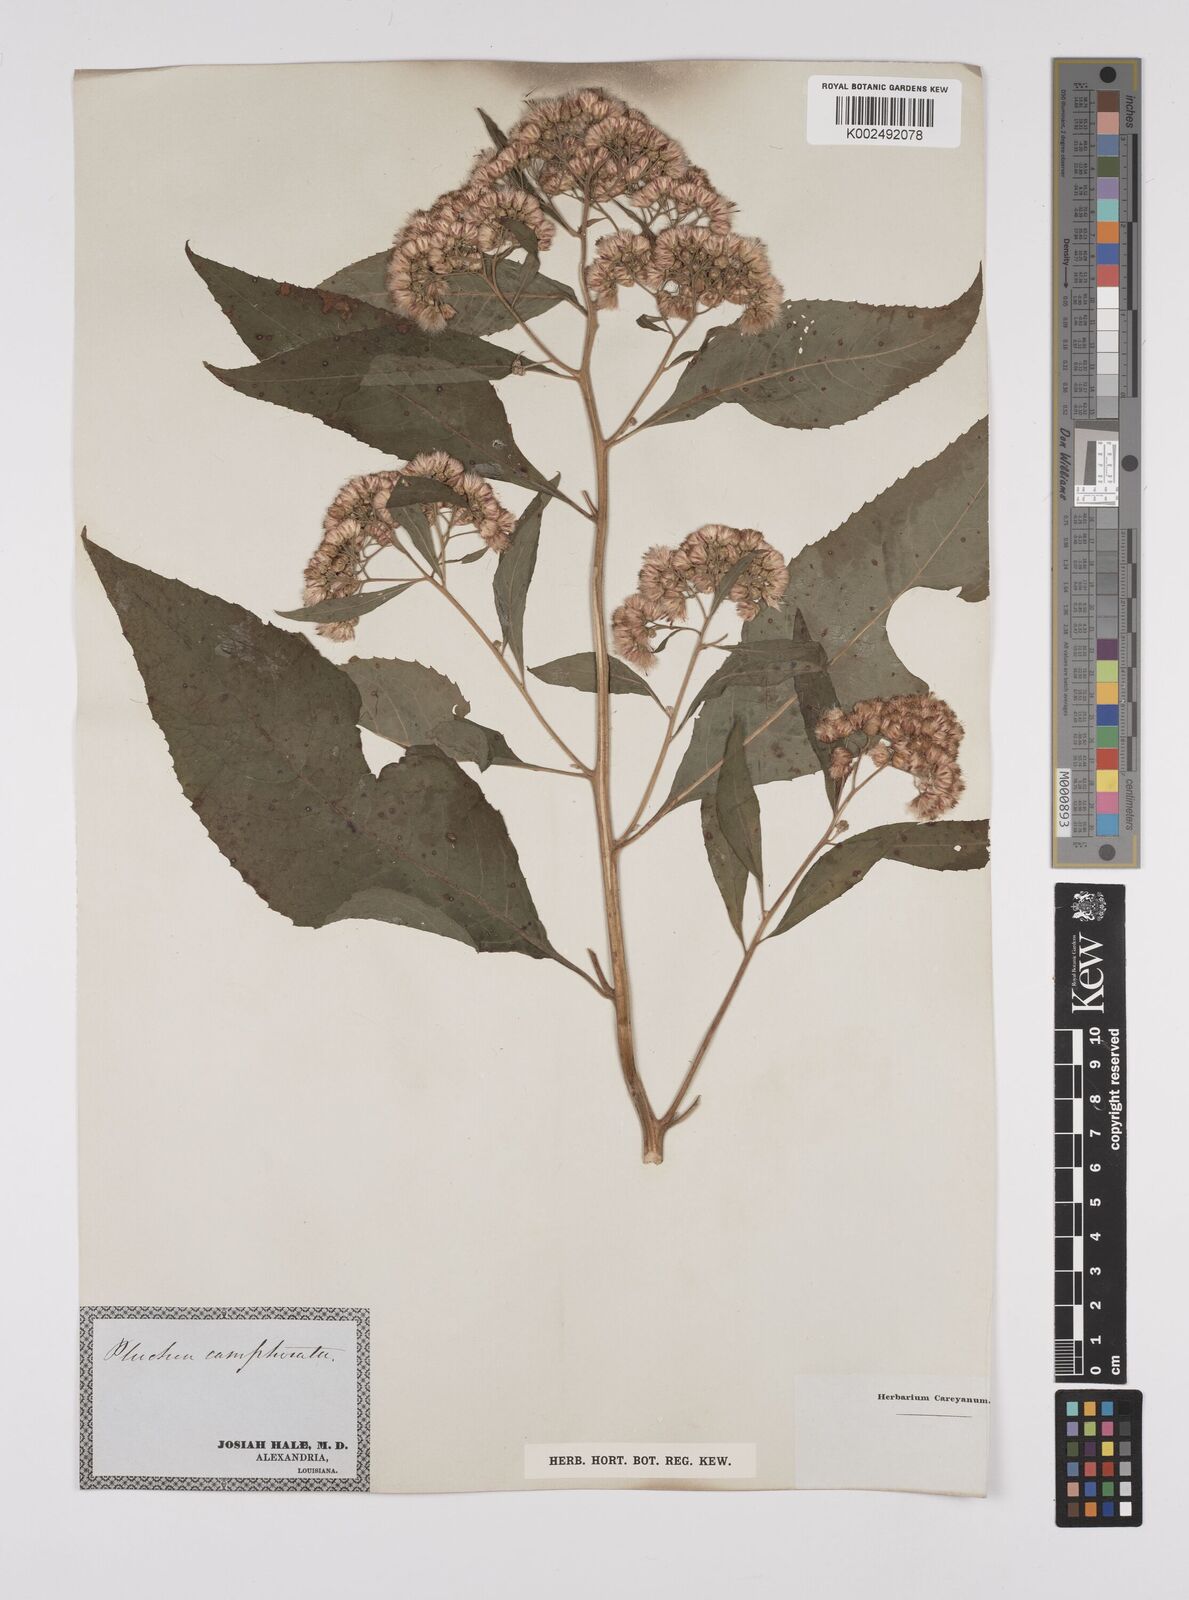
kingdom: Plantae
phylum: Tracheophyta
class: Magnoliopsida
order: Asterales
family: Asteraceae
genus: Pluchea
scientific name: Pluchea camphorata
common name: Camphor pluchea
